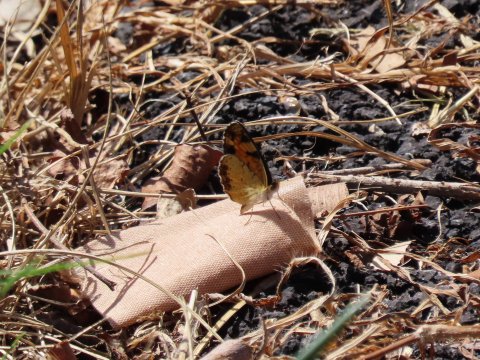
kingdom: Animalia
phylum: Arthropoda
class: Insecta
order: Lepidoptera
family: Nymphalidae
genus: Phyciodes
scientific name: Phyciodes tharos
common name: Pearl Crescent
